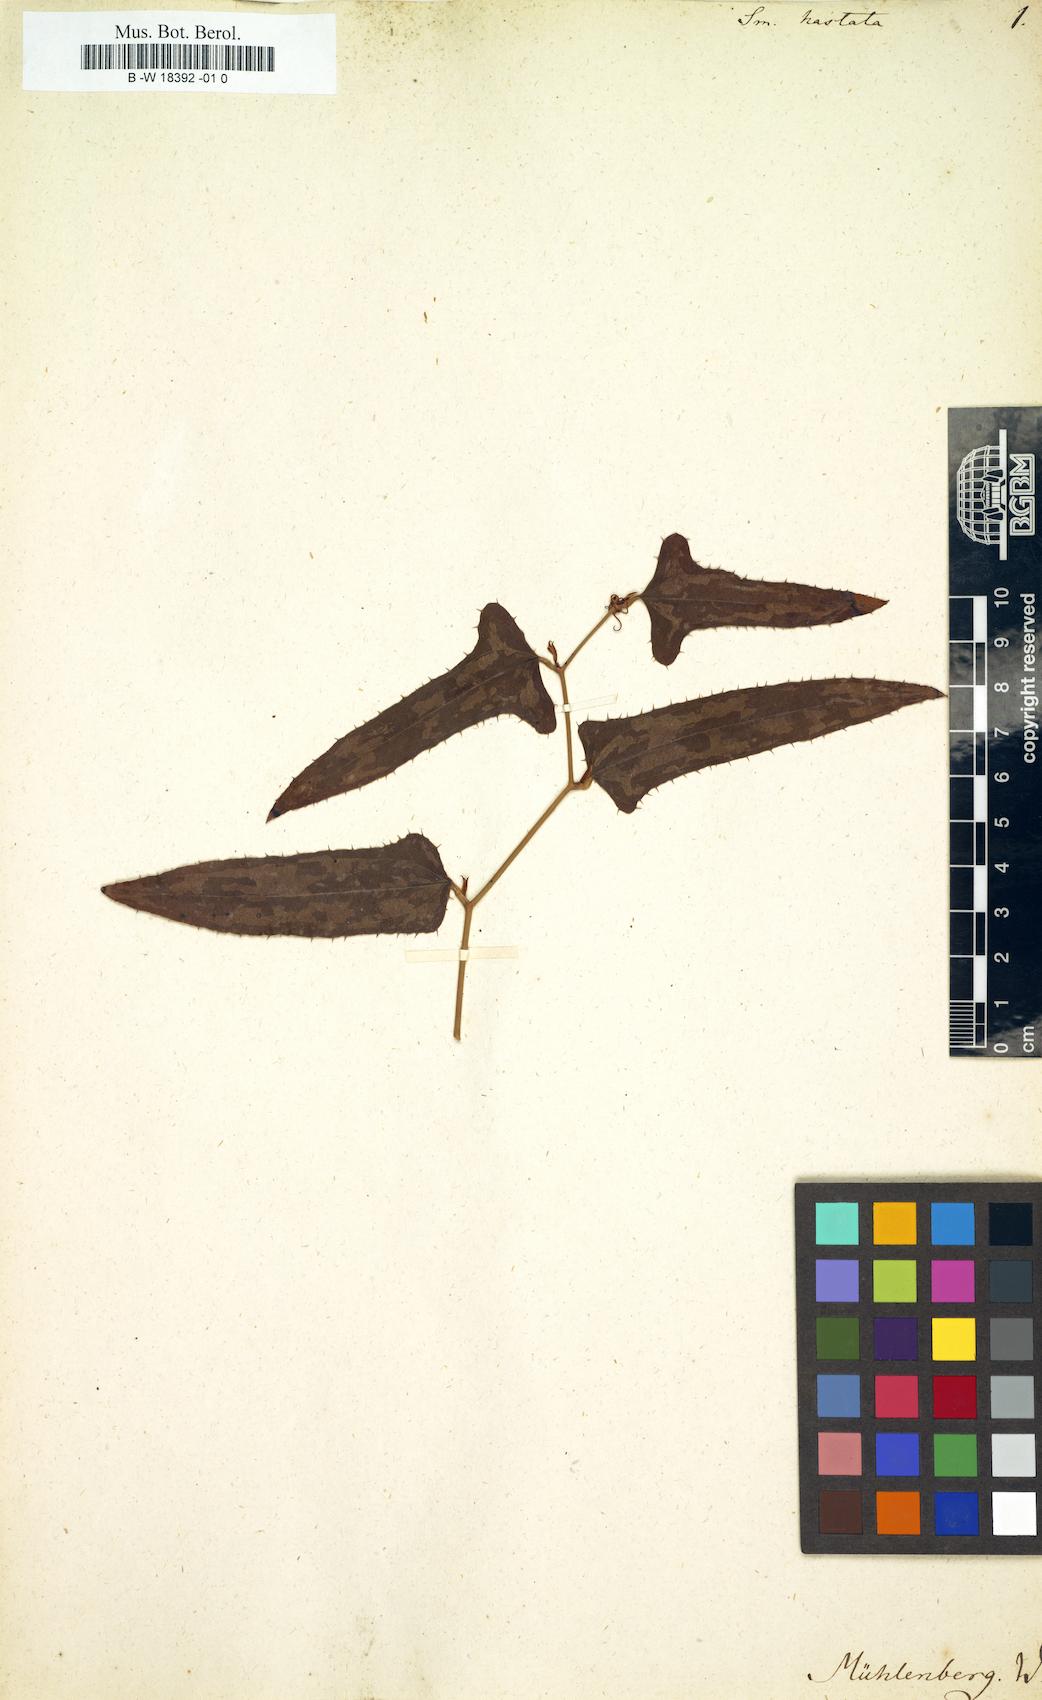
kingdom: Plantae
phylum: Tracheophyta
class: Liliopsida
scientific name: Liliopsida
